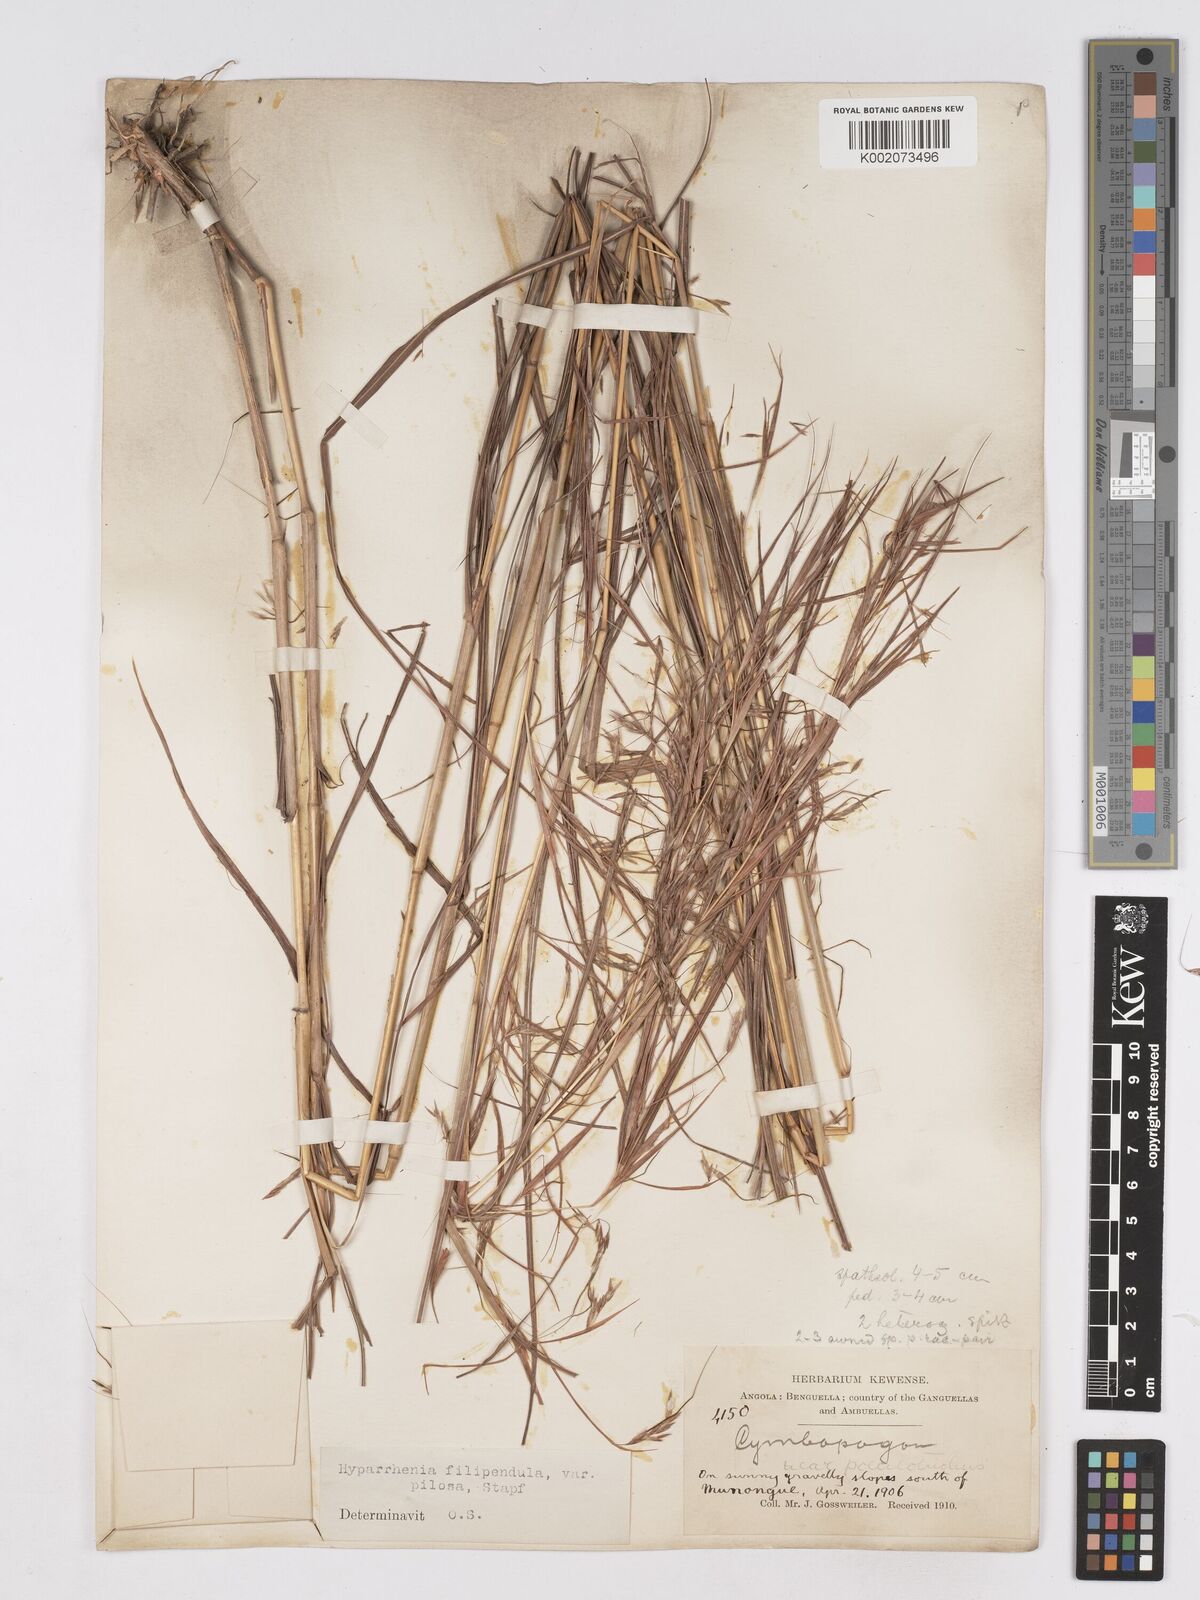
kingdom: Plantae
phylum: Tracheophyta
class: Liliopsida
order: Poales
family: Poaceae
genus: Hyparrhenia
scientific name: Hyparrhenia filipendula
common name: Tambookie grass
